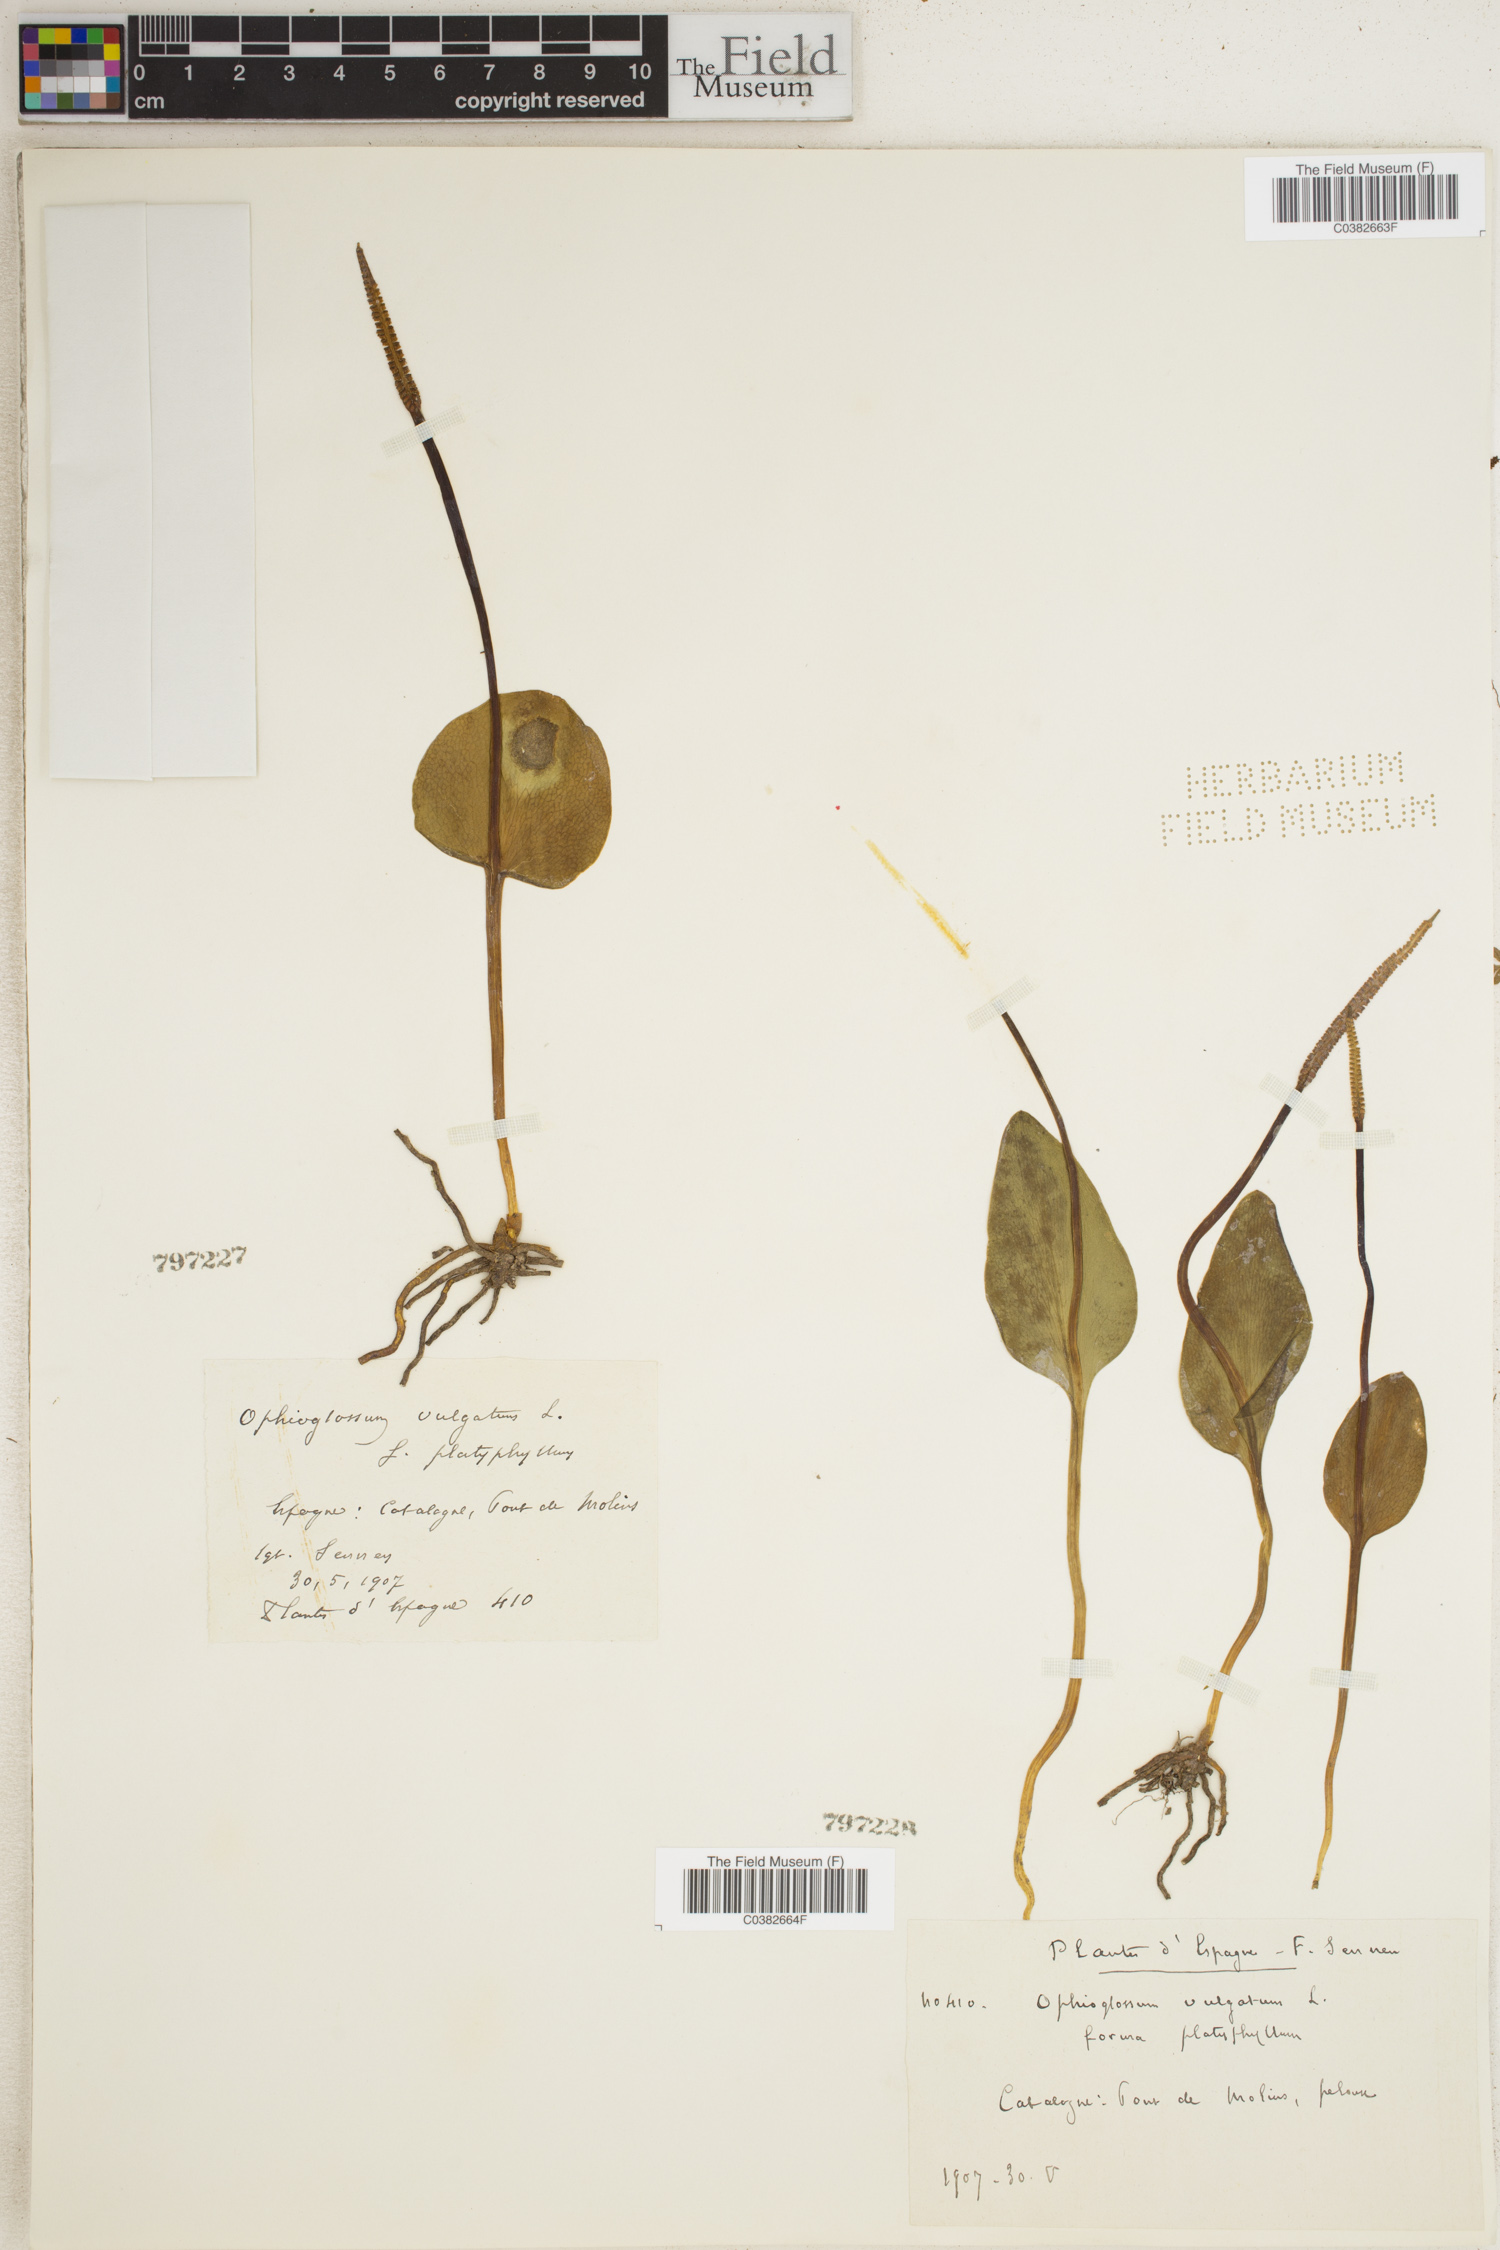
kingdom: Plantae
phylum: Tracheophyta
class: Polypodiopsida
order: Ophioglossales
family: Ophioglossaceae
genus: Ophioglossum
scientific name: Ophioglossum vulgatum
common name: Adder's-tongue
